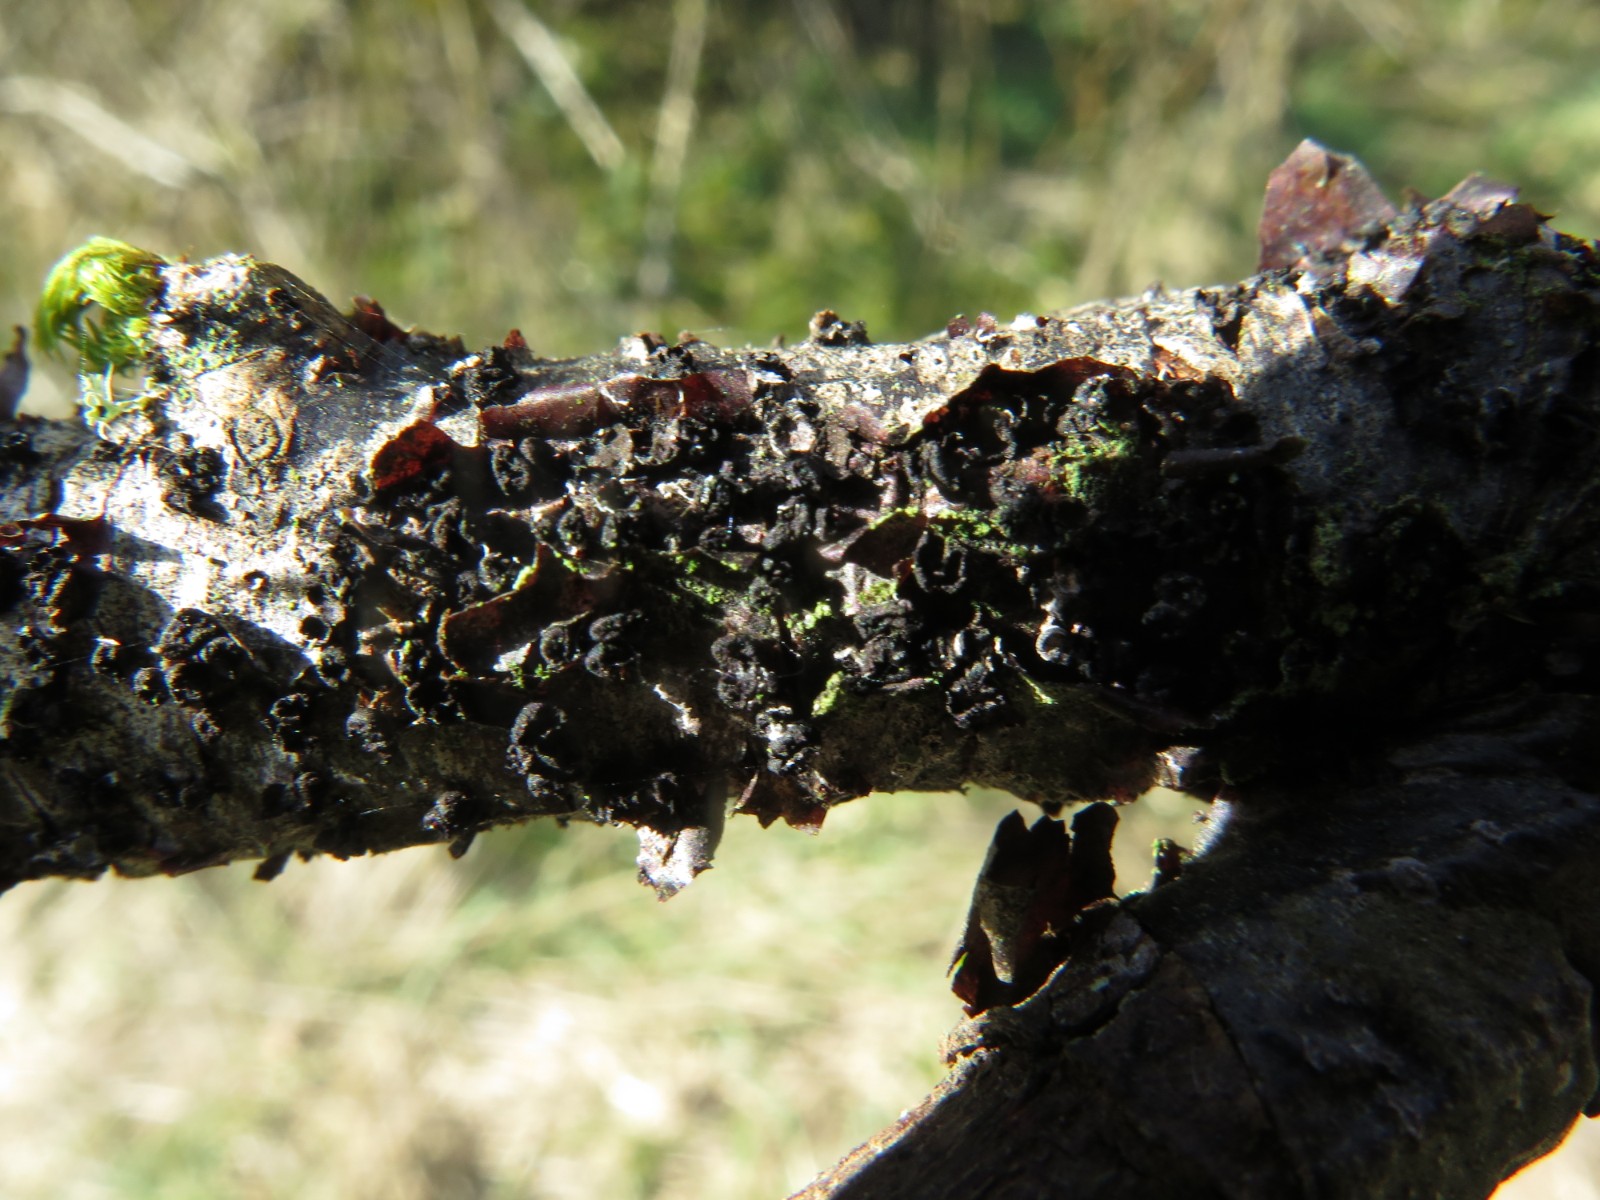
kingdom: Fungi
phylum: Ascomycota
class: Leotiomycetes
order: Helotiales
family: Godroniaceae
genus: Godronia
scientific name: Godronia ribis
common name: ribs-urneskive
